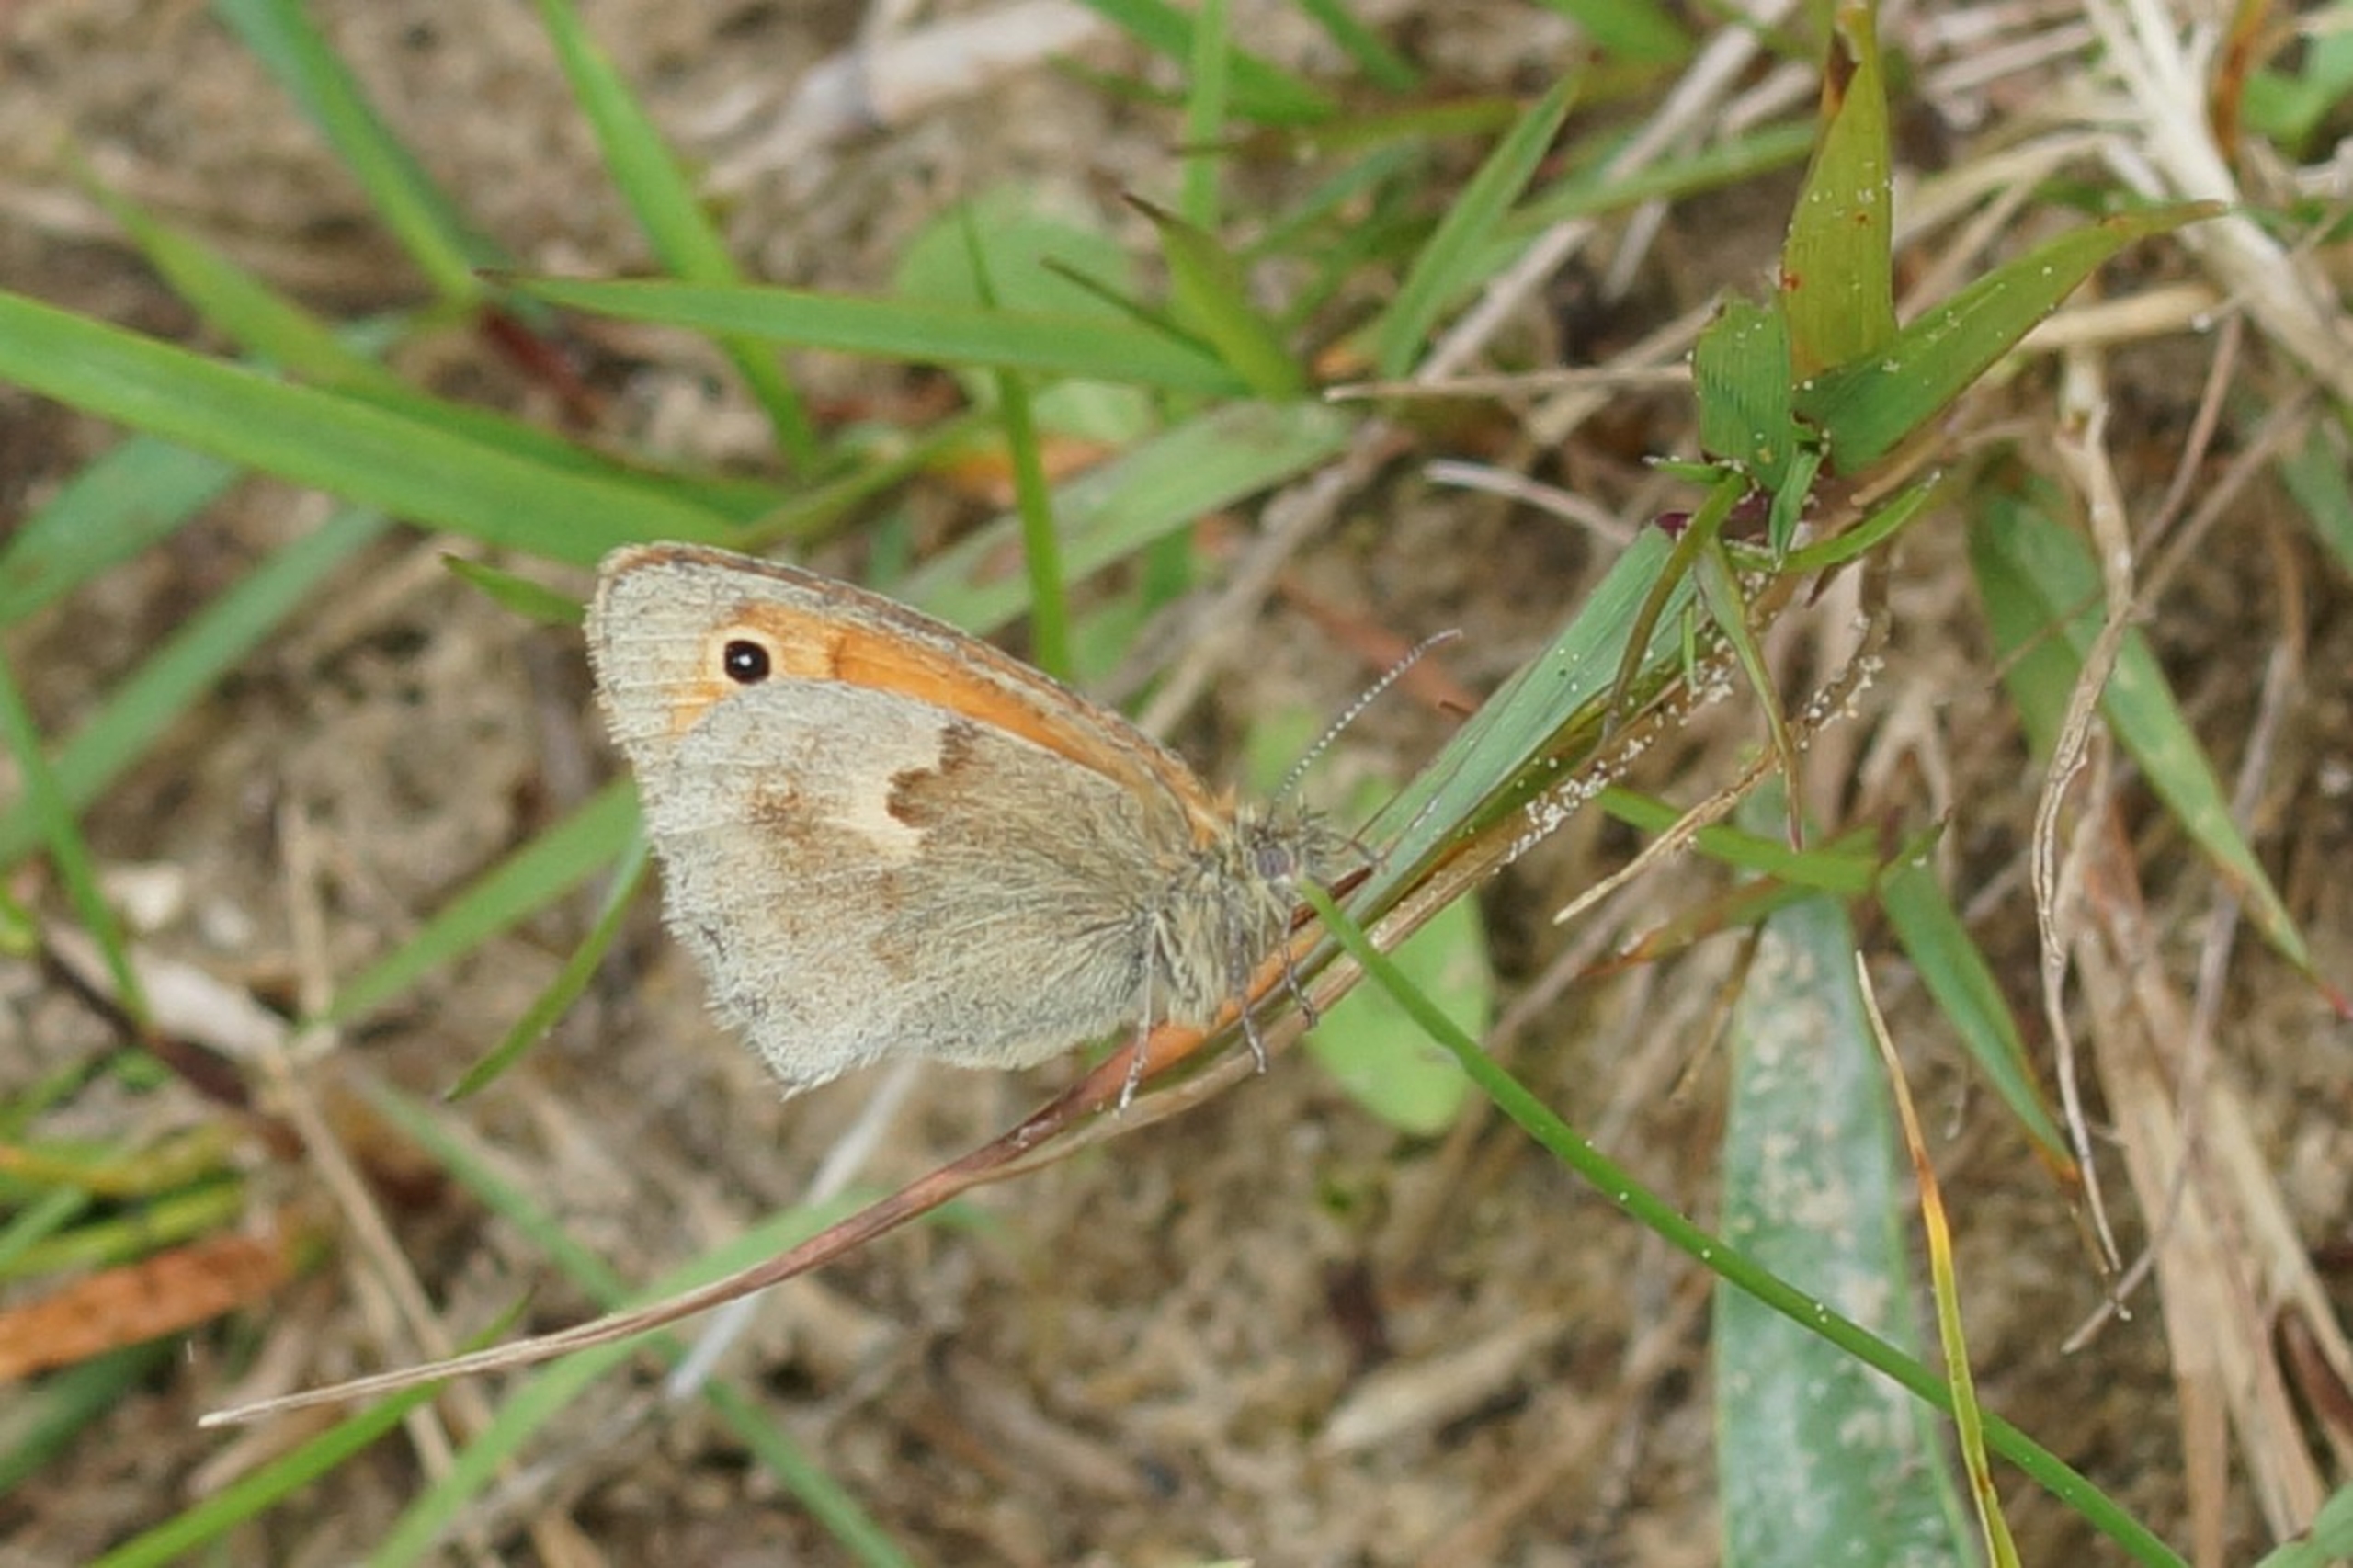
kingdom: Animalia
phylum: Arthropoda
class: Insecta
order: Lepidoptera
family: Nymphalidae
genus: Coenonympha
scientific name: Coenonympha pamphilus
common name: Okkergul randøje
